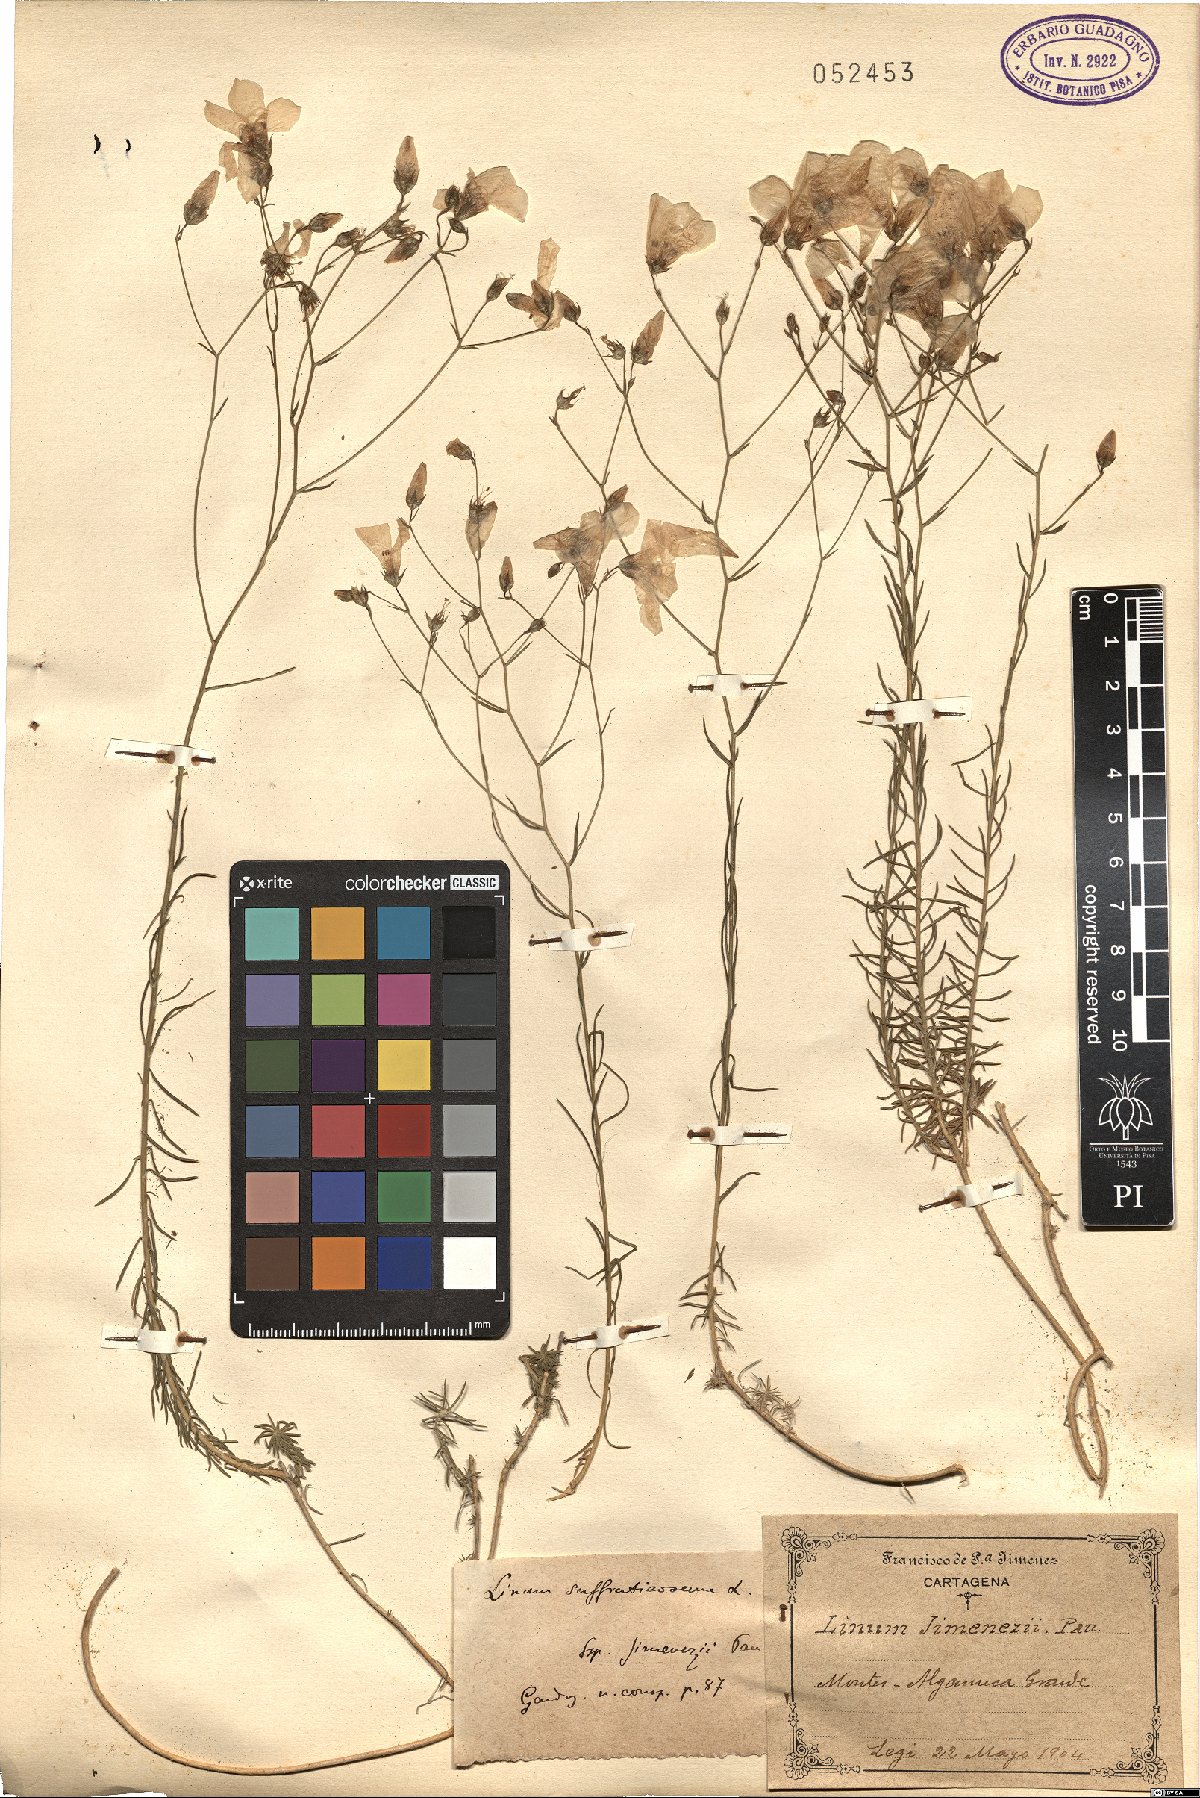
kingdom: Plantae
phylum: Tracheophyta
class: Magnoliopsida
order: Malpighiales
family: Linaceae
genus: Linum
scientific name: Linum suffruticosum
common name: White flax
